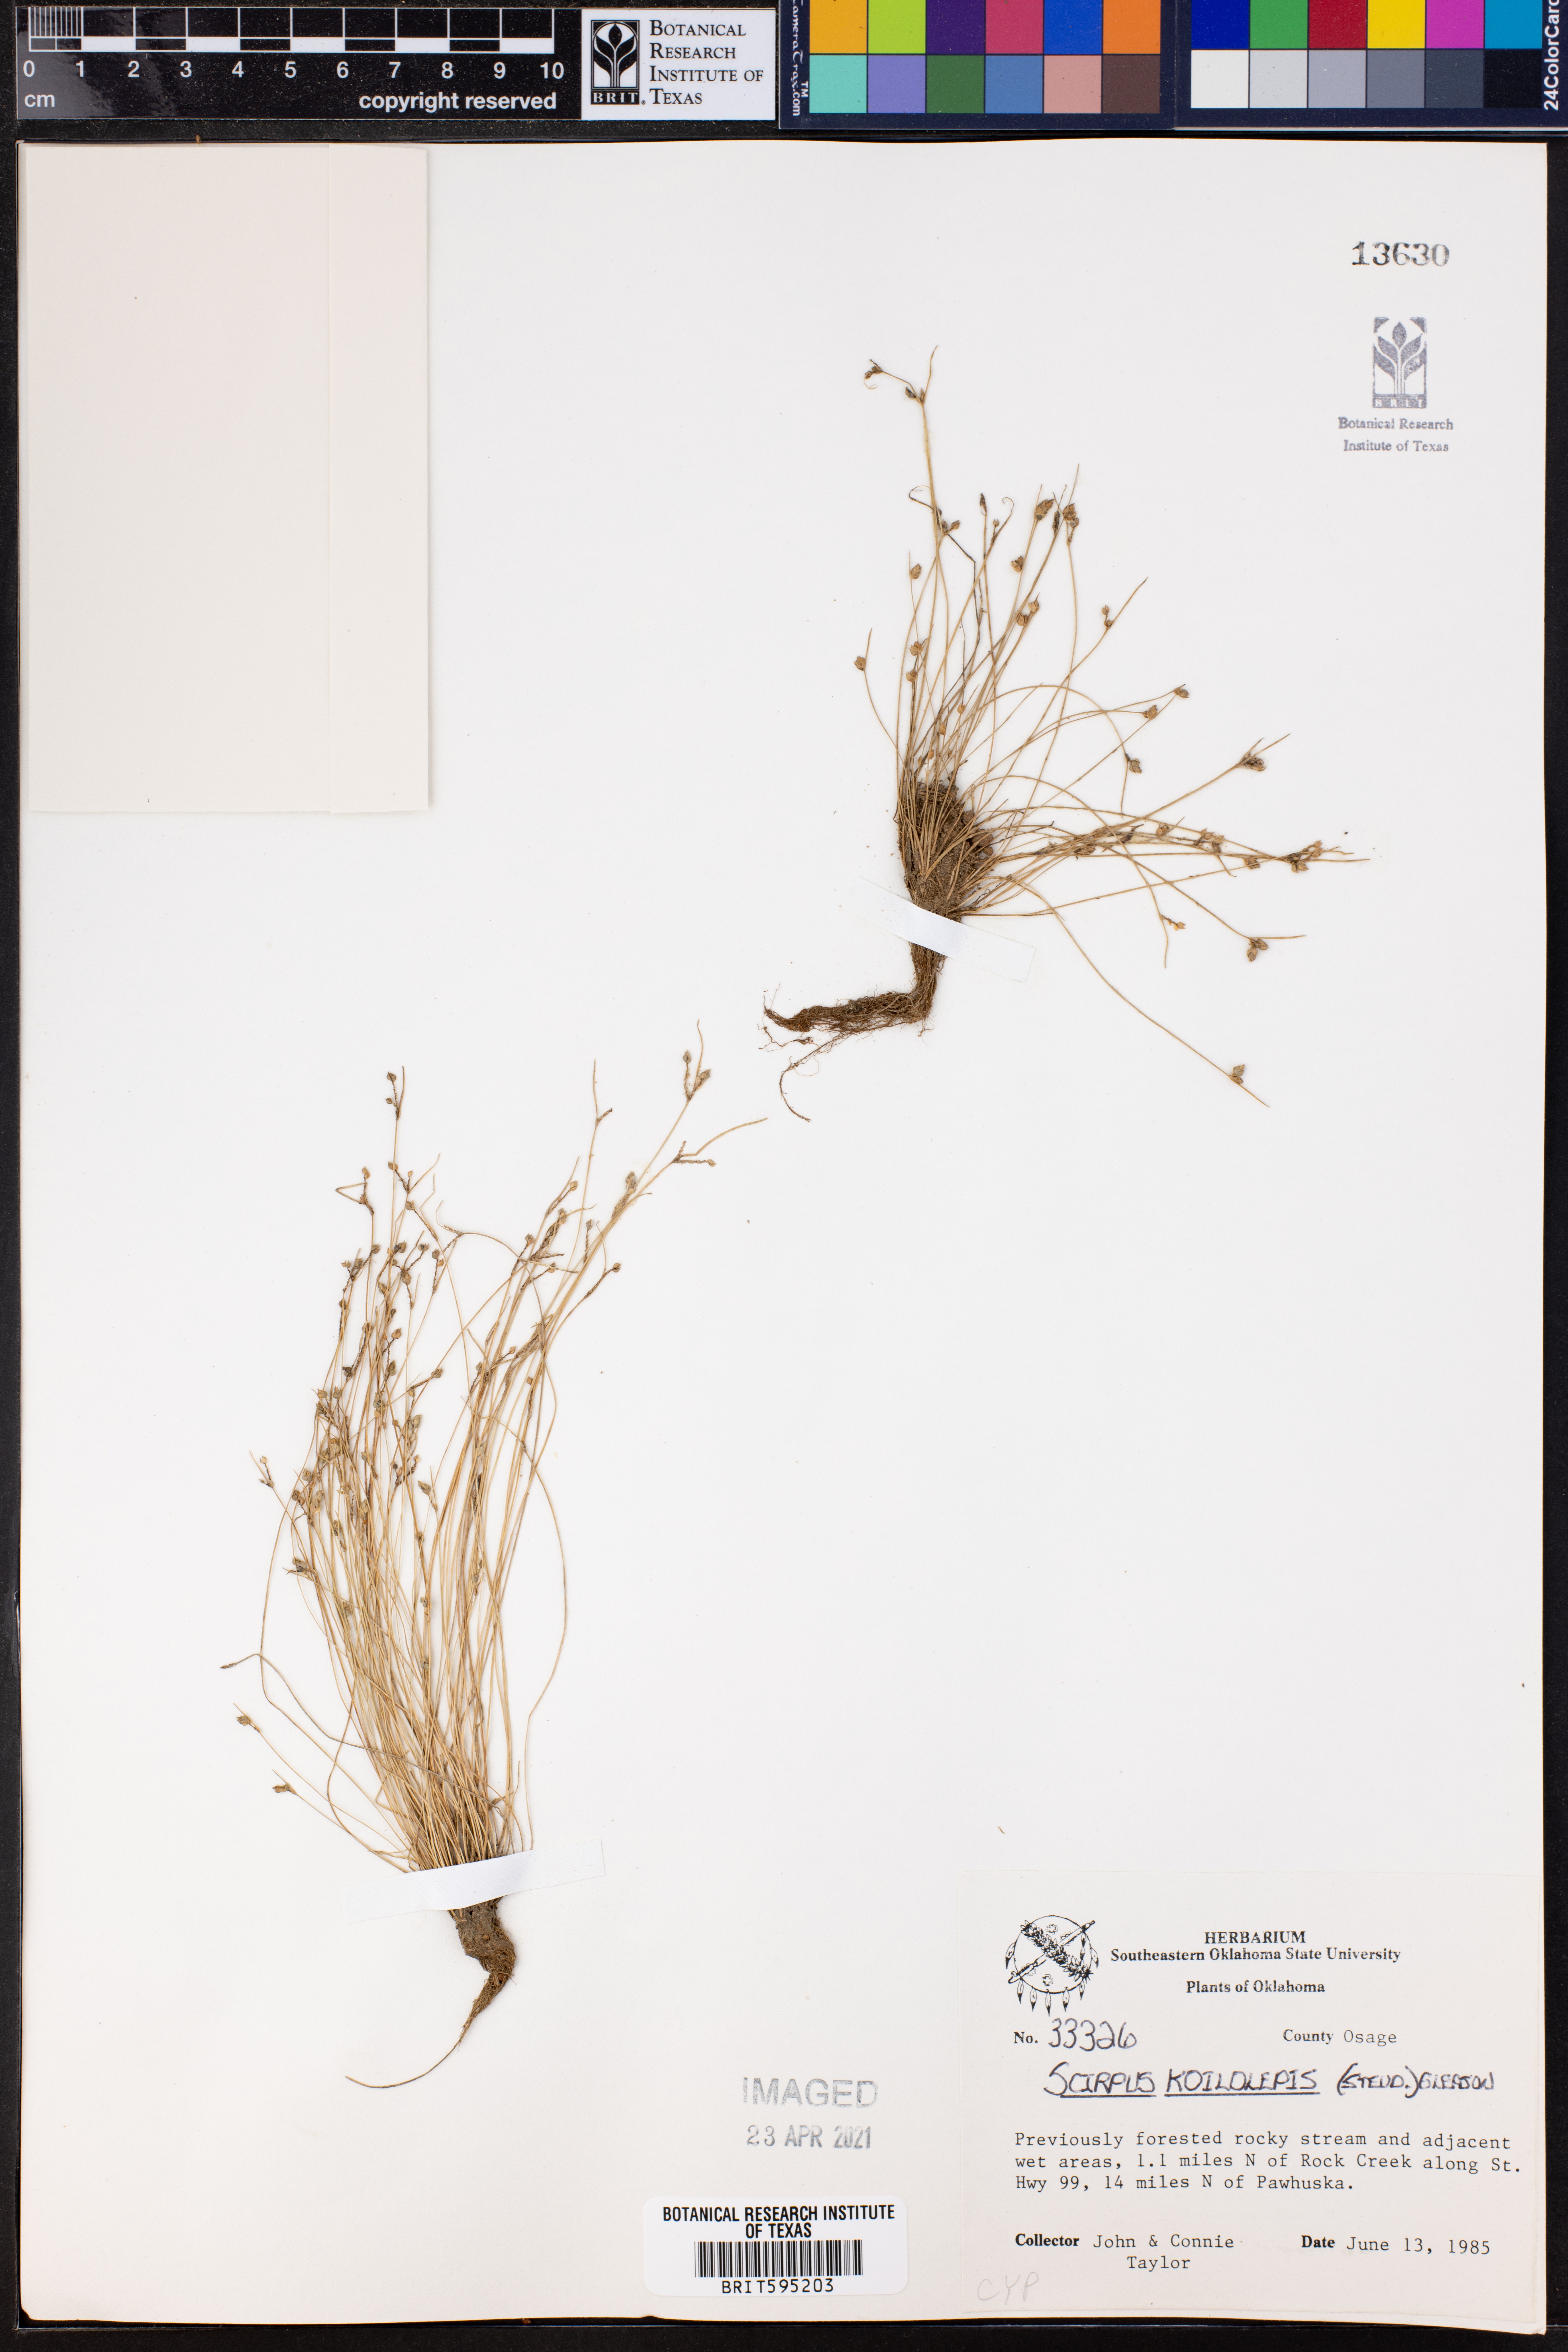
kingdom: Plantae
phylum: Tracheophyta
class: Liliopsida
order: Poales
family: Cyperaceae
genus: Isolepis
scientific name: Isolepis carinata
